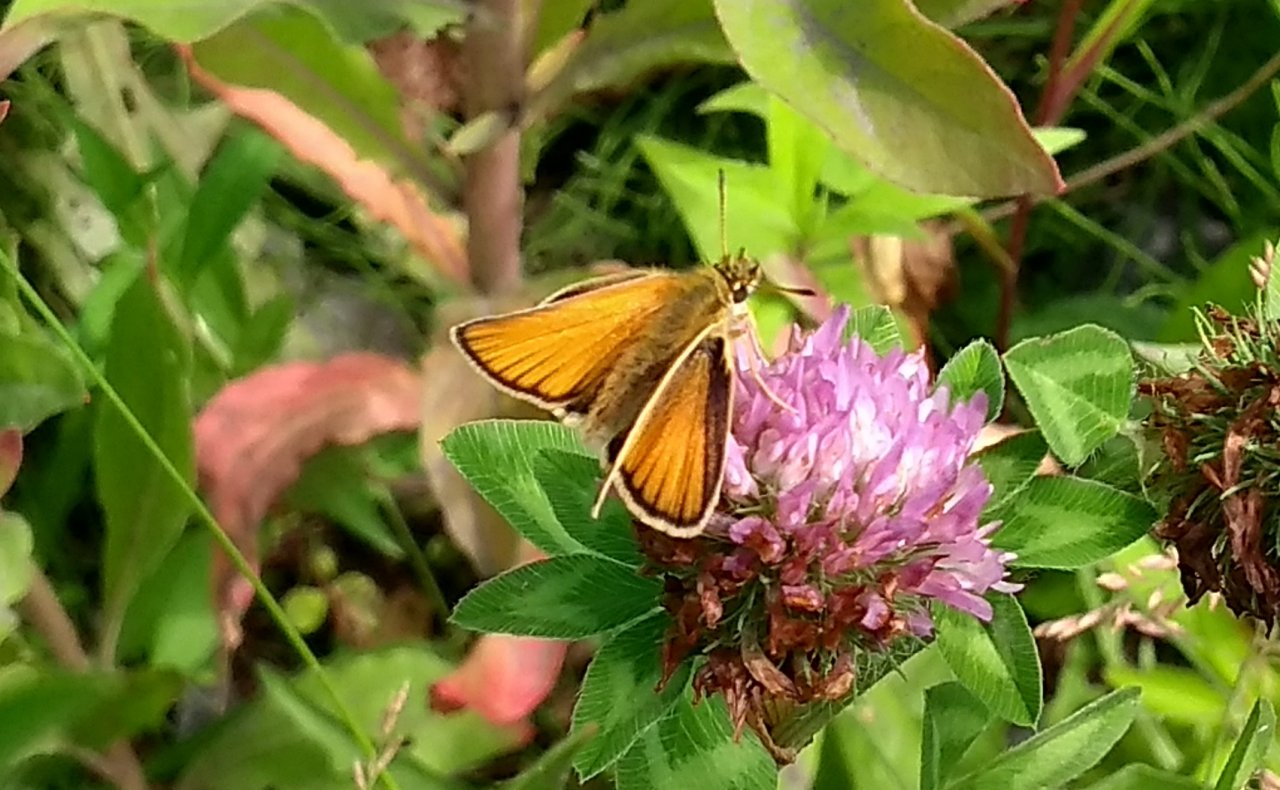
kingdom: Animalia
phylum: Arthropoda
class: Insecta
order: Lepidoptera
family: Hesperiidae
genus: Thymelicus
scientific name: Thymelicus lineola
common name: European Skipper
